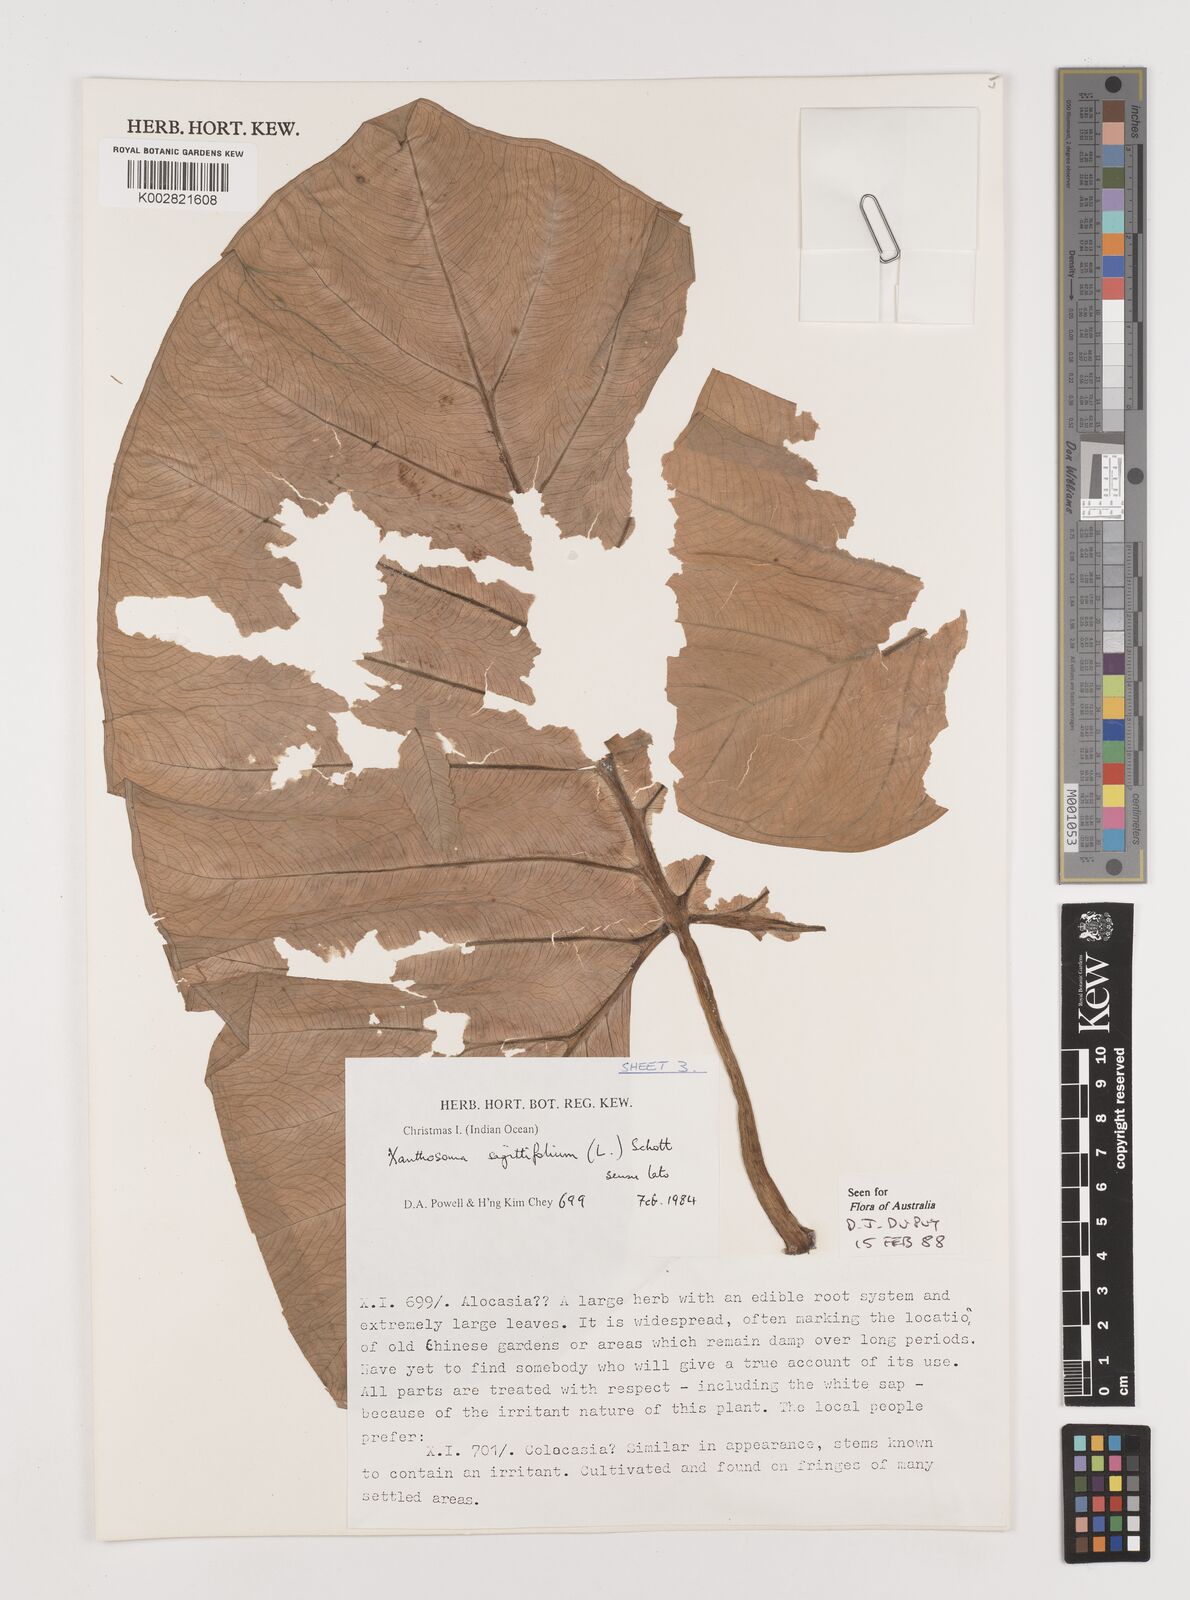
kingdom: Plantae
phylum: Tracheophyta
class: Liliopsida
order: Alismatales
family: Araceae
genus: Xanthosoma
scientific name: Xanthosoma sagittifolium
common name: Arrowleaf elephant's ear
